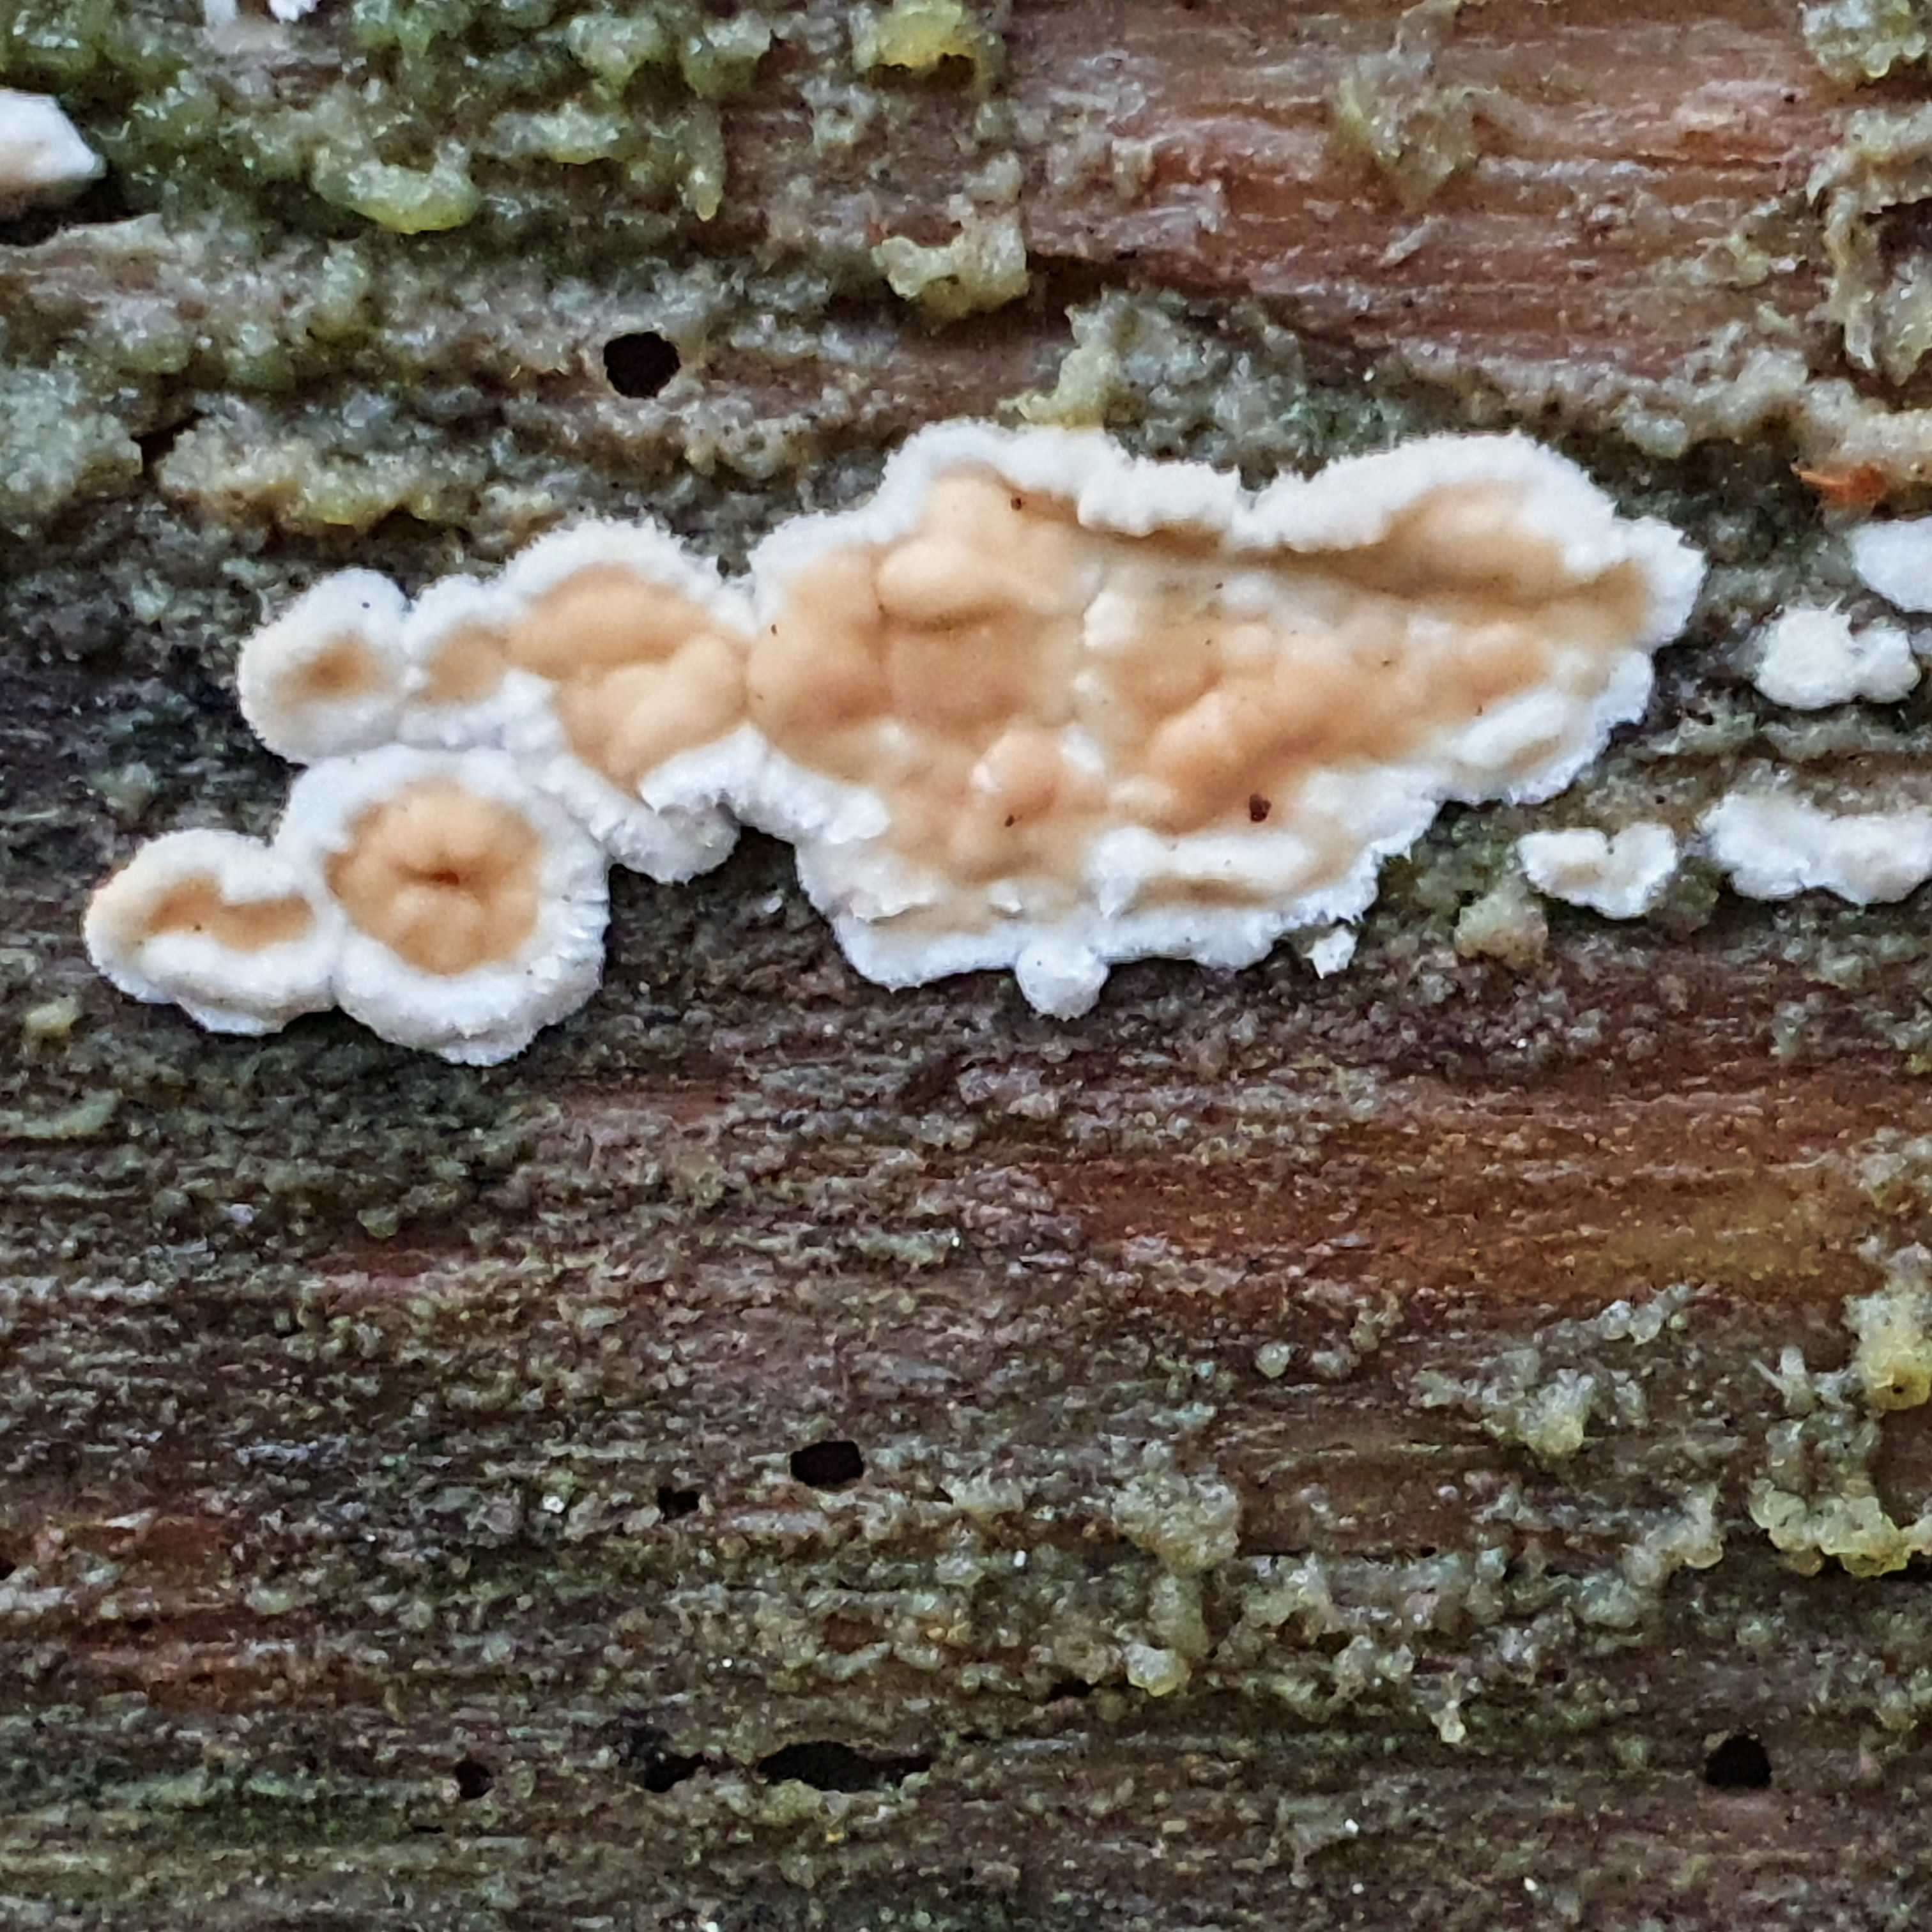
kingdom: Fungi
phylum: Basidiomycota
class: Agaricomycetes
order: Polyporales
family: Dacryobolaceae
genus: Dacryobolus
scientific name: Dacryobolus karstenii
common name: glat vulkanskorpe
